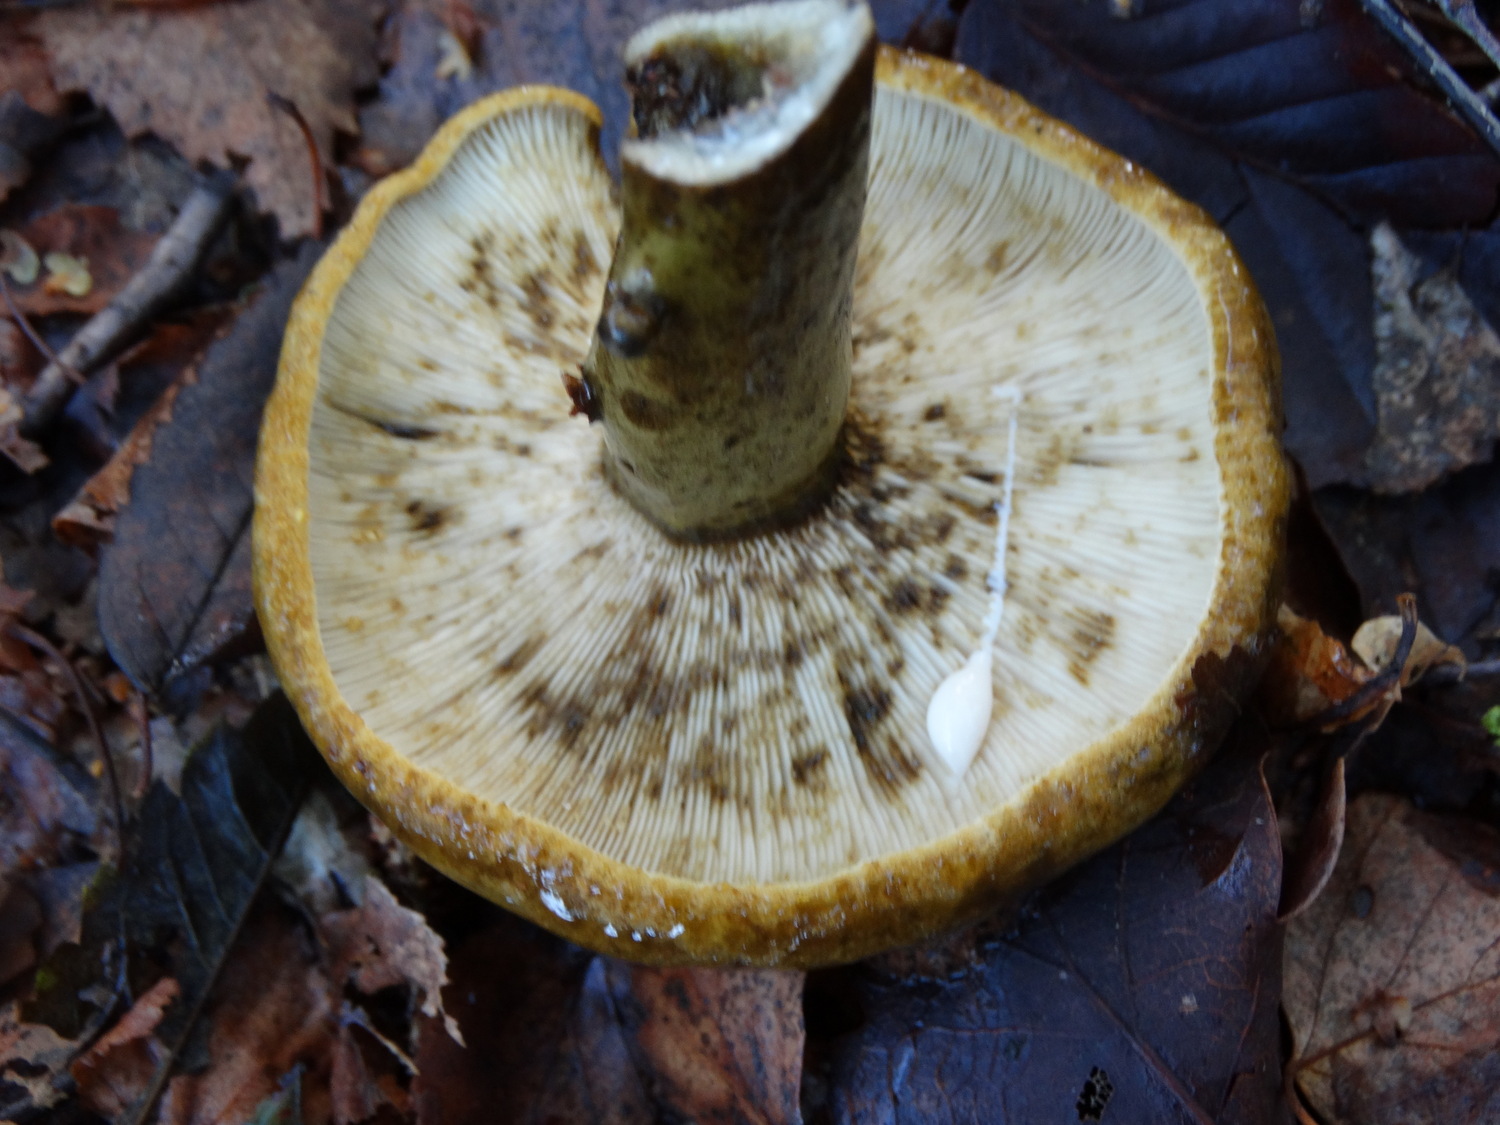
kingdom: Fungi
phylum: Basidiomycota
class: Agaricomycetes
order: Russulales
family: Russulaceae
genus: Lactarius
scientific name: Lactarius necator
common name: manddraber-mælkehat
